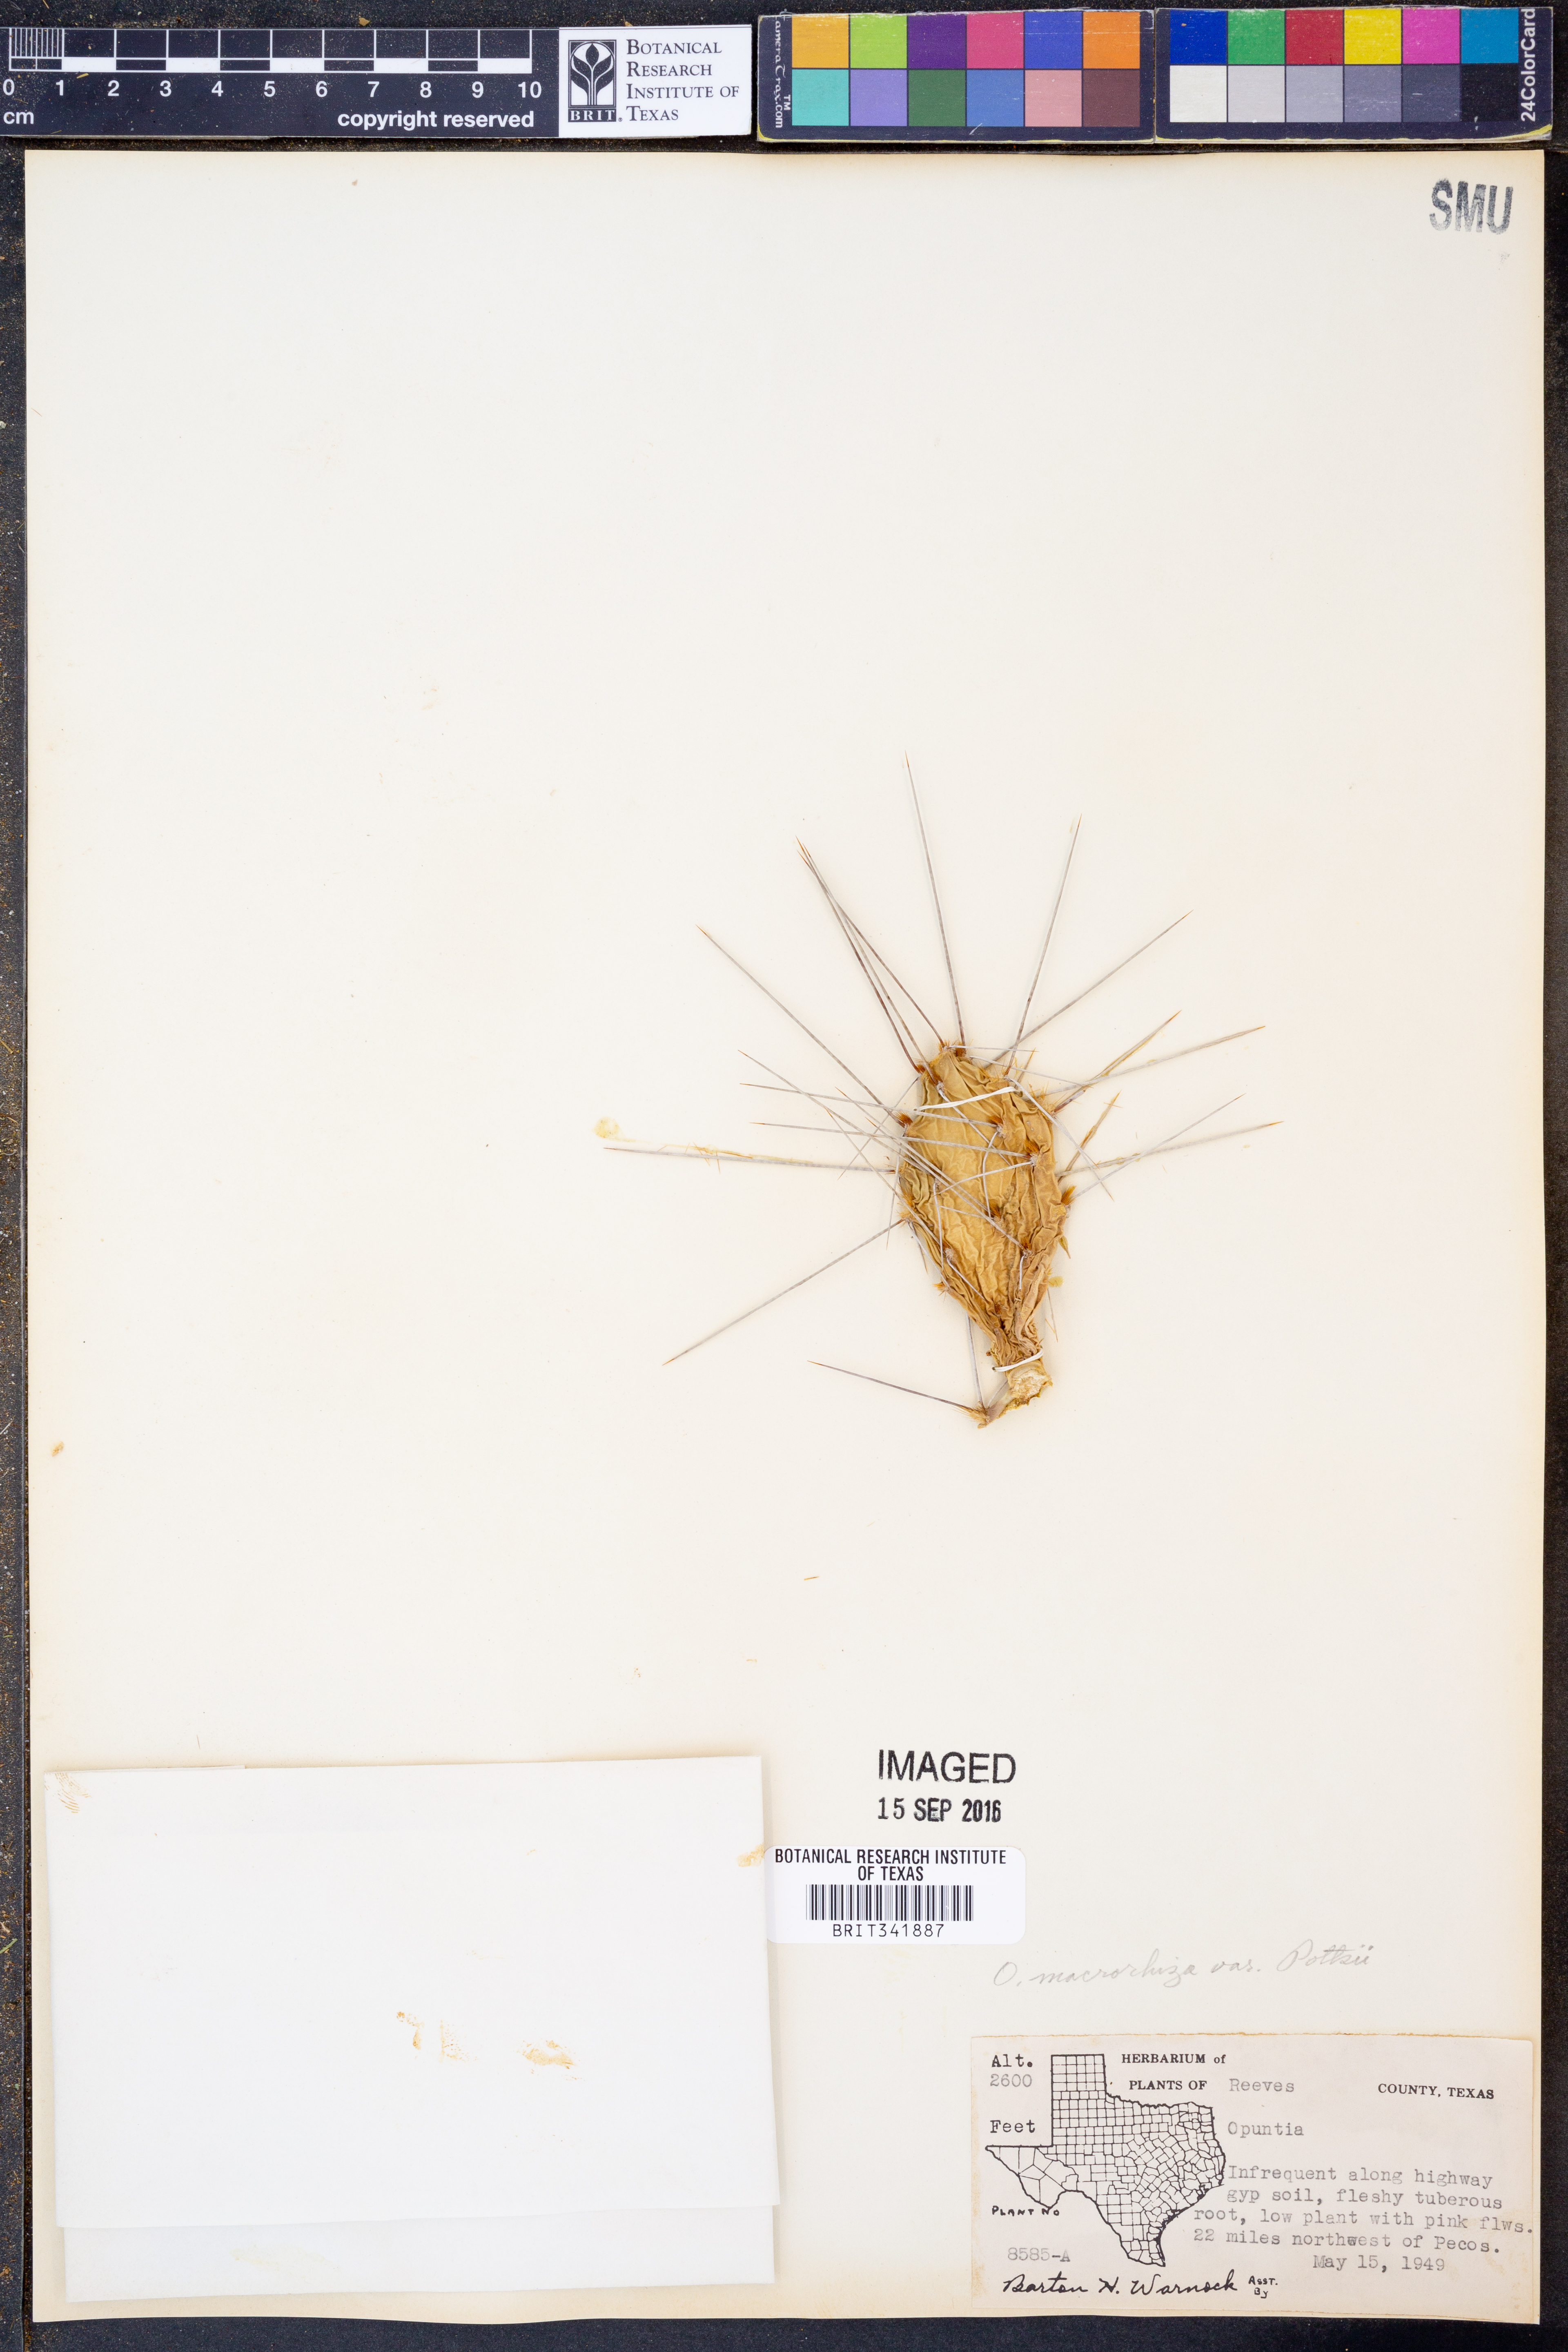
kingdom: Plantae
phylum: Tracheophyta
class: Magnoliopsida
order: Caryophyllales
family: Cactaceae
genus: Opuntia
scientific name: Opuntia pottsii
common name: Potts's prickly-pear
